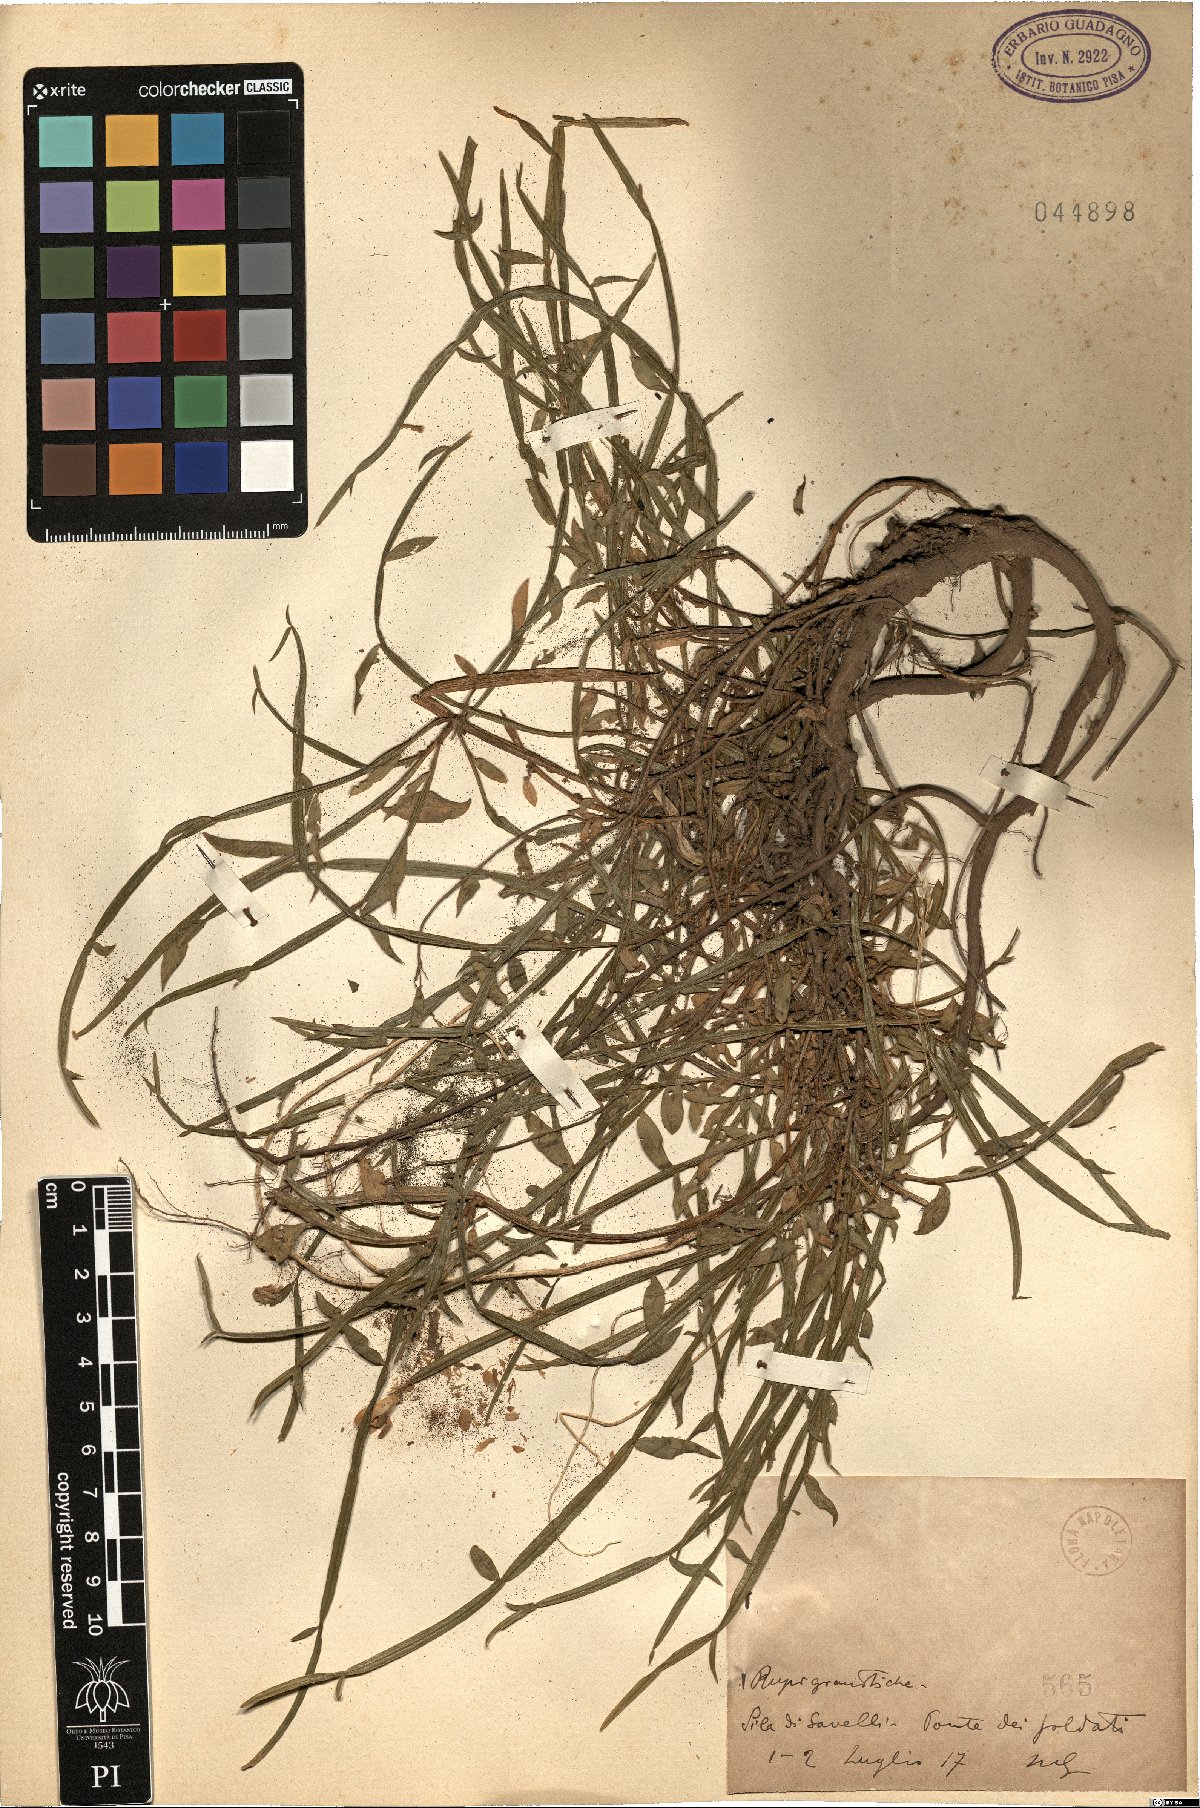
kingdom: Plantae
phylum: Tracheophyta
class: Magnoliopsida
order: Fabales
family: Fabaceae
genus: Genista
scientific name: Genista
